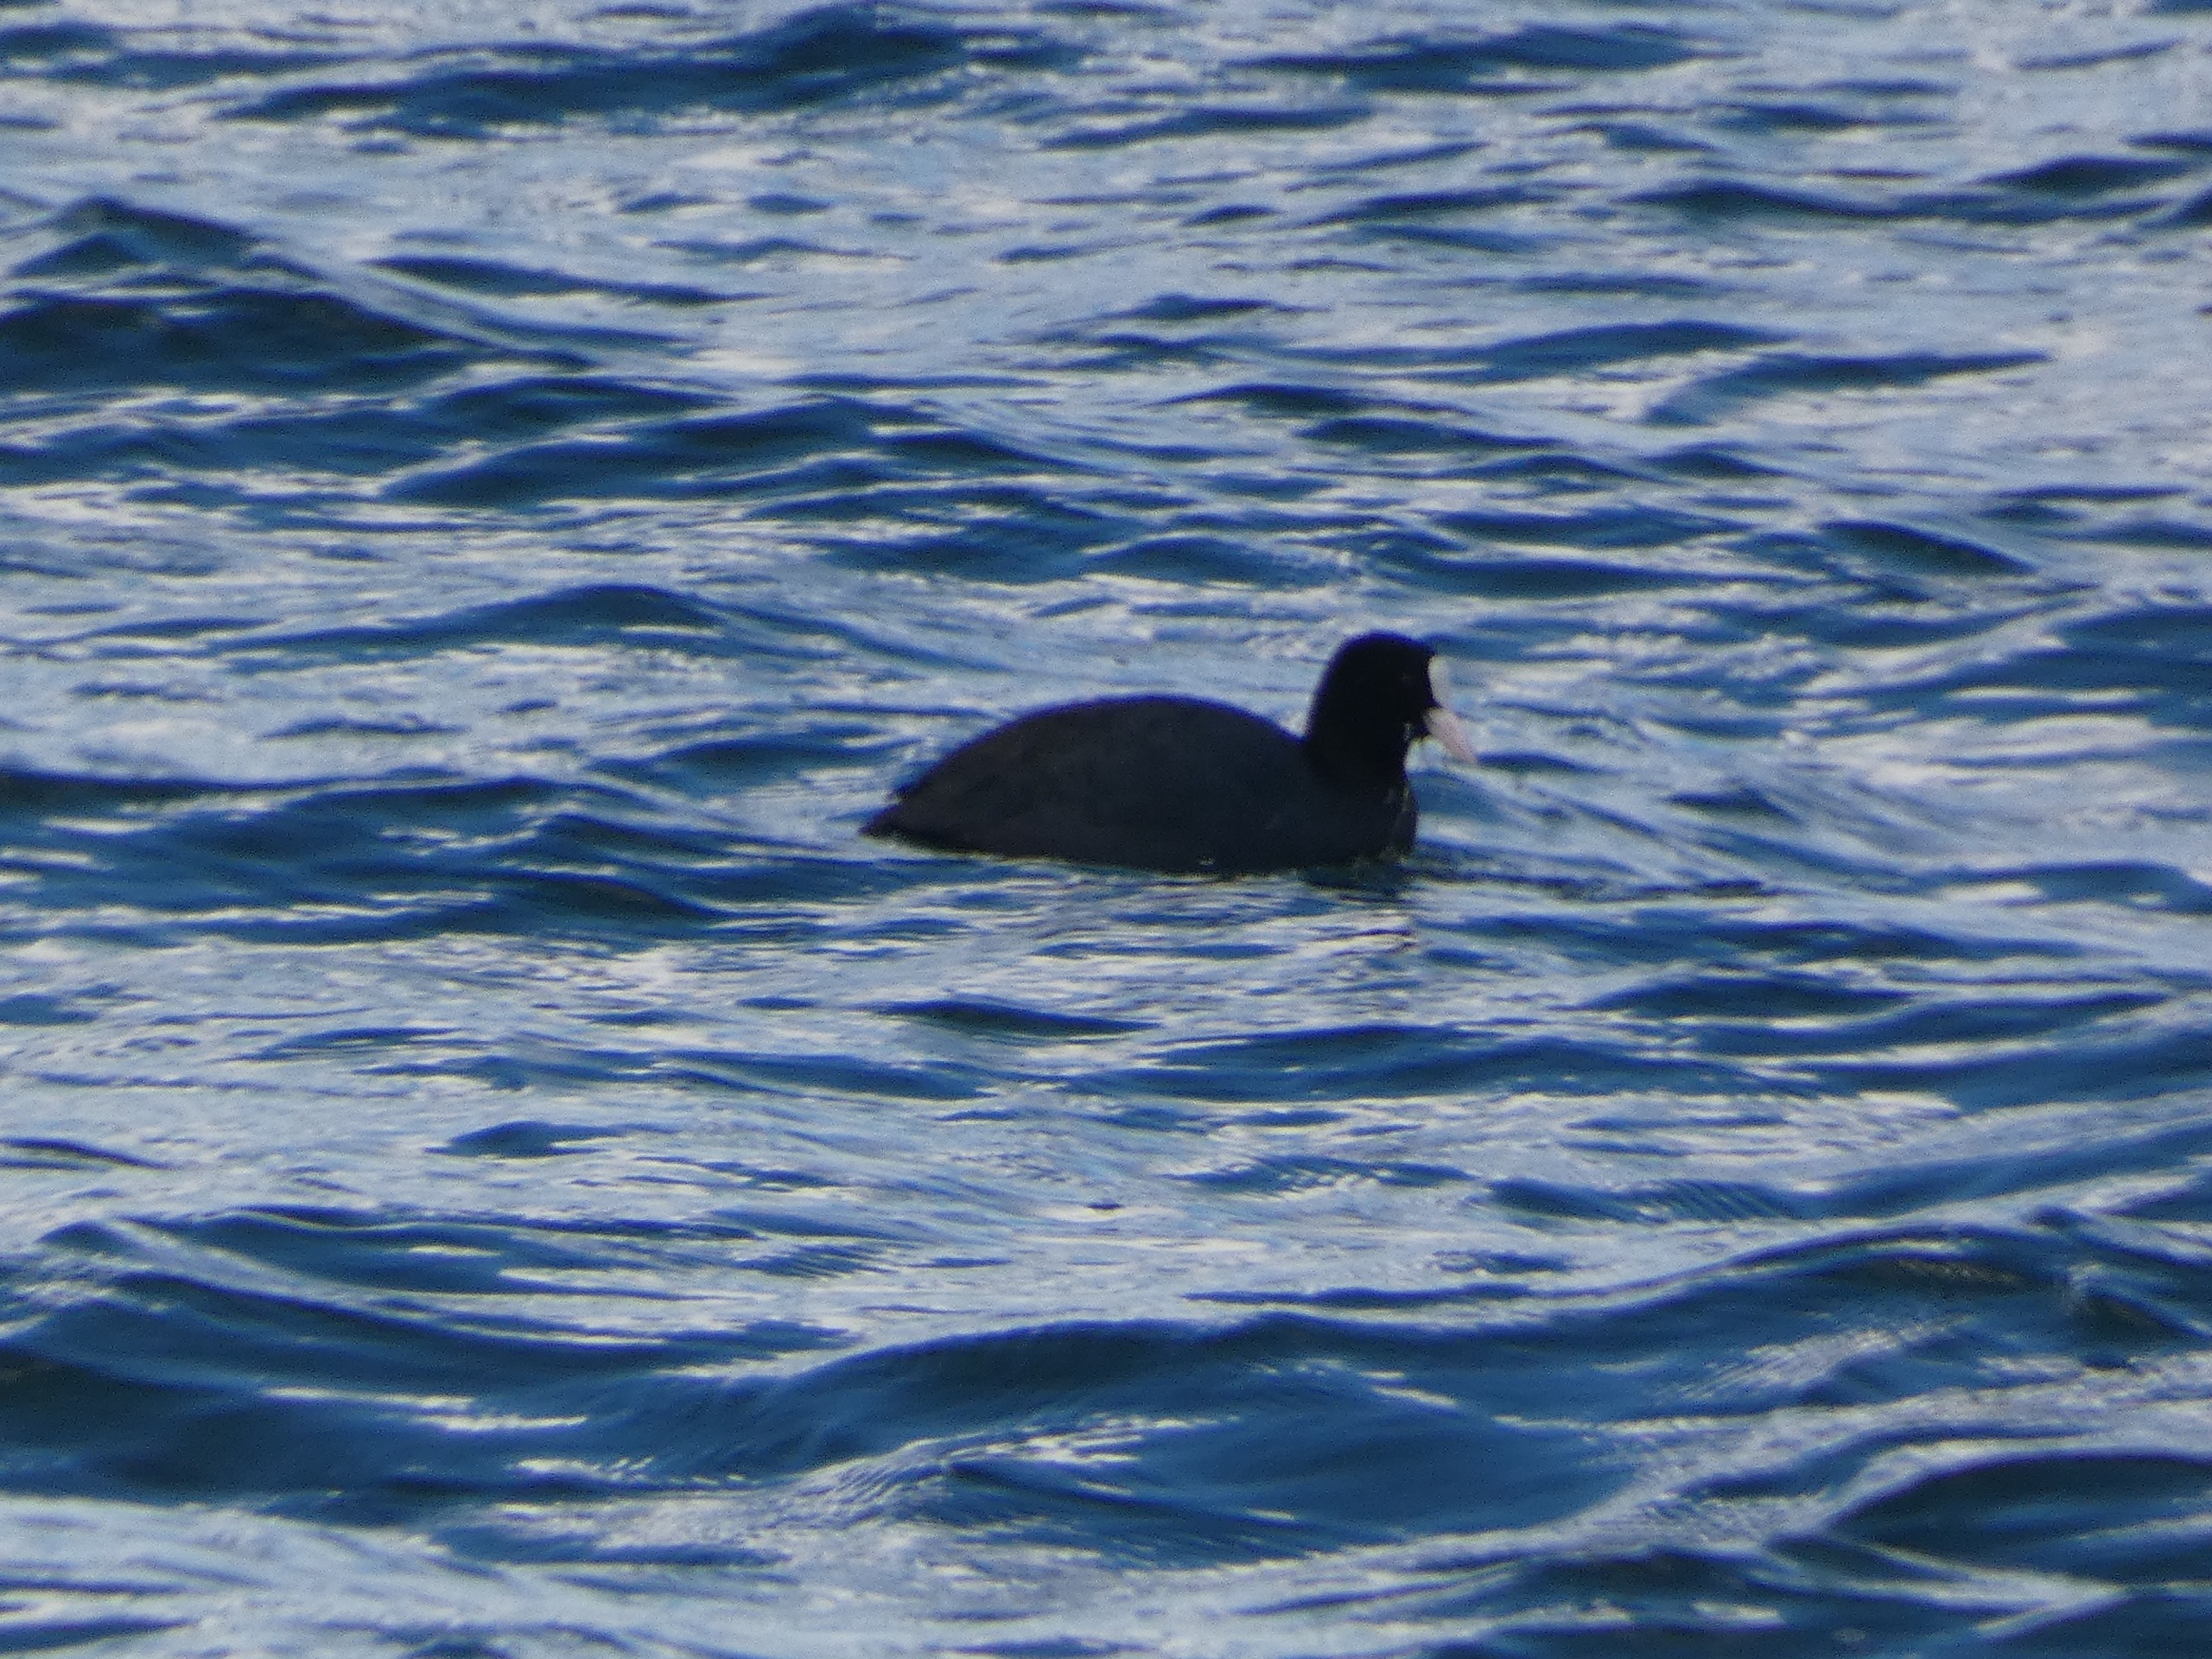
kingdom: Animalia
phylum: Chordata
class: Aves
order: Gruiformes
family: Rallidae
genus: Fulica
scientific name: Fulica atra
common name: Blishøne
